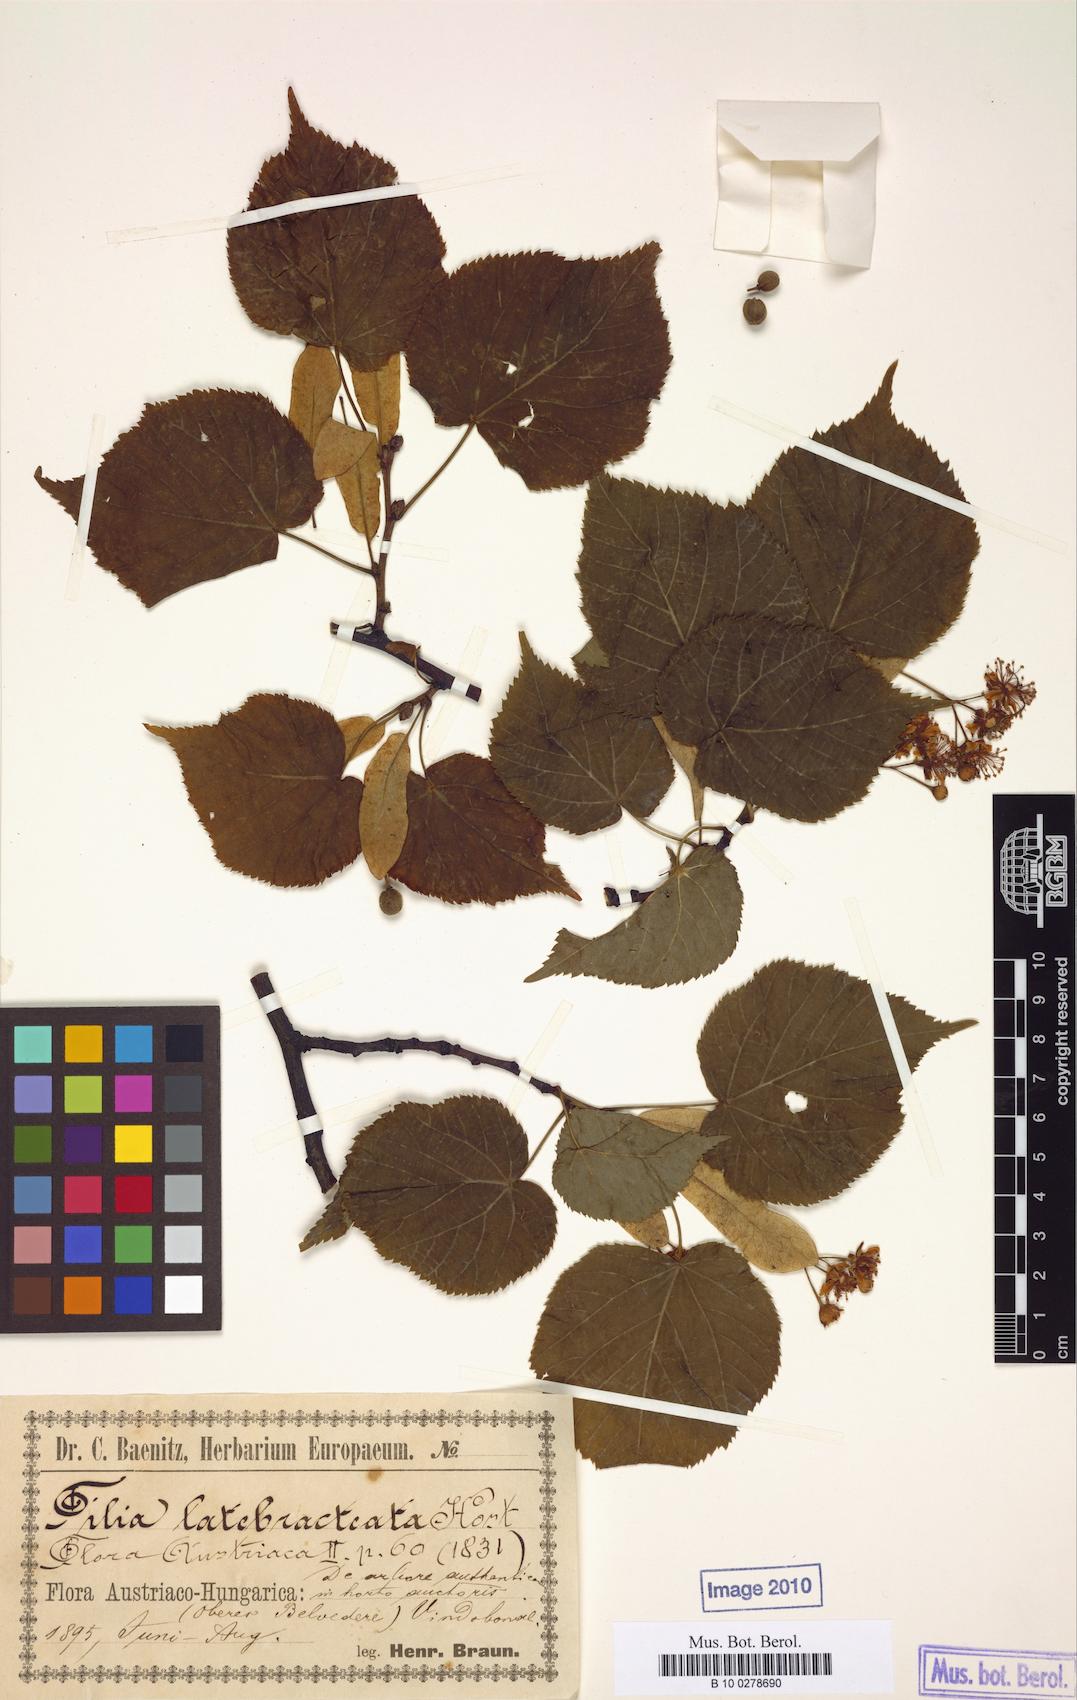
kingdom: Plantae
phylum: Tracheophyta
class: Magnoliopsida
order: Malvales
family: Malvaceae
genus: Tilia
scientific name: Tilia cordata
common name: Small-leaved lime
